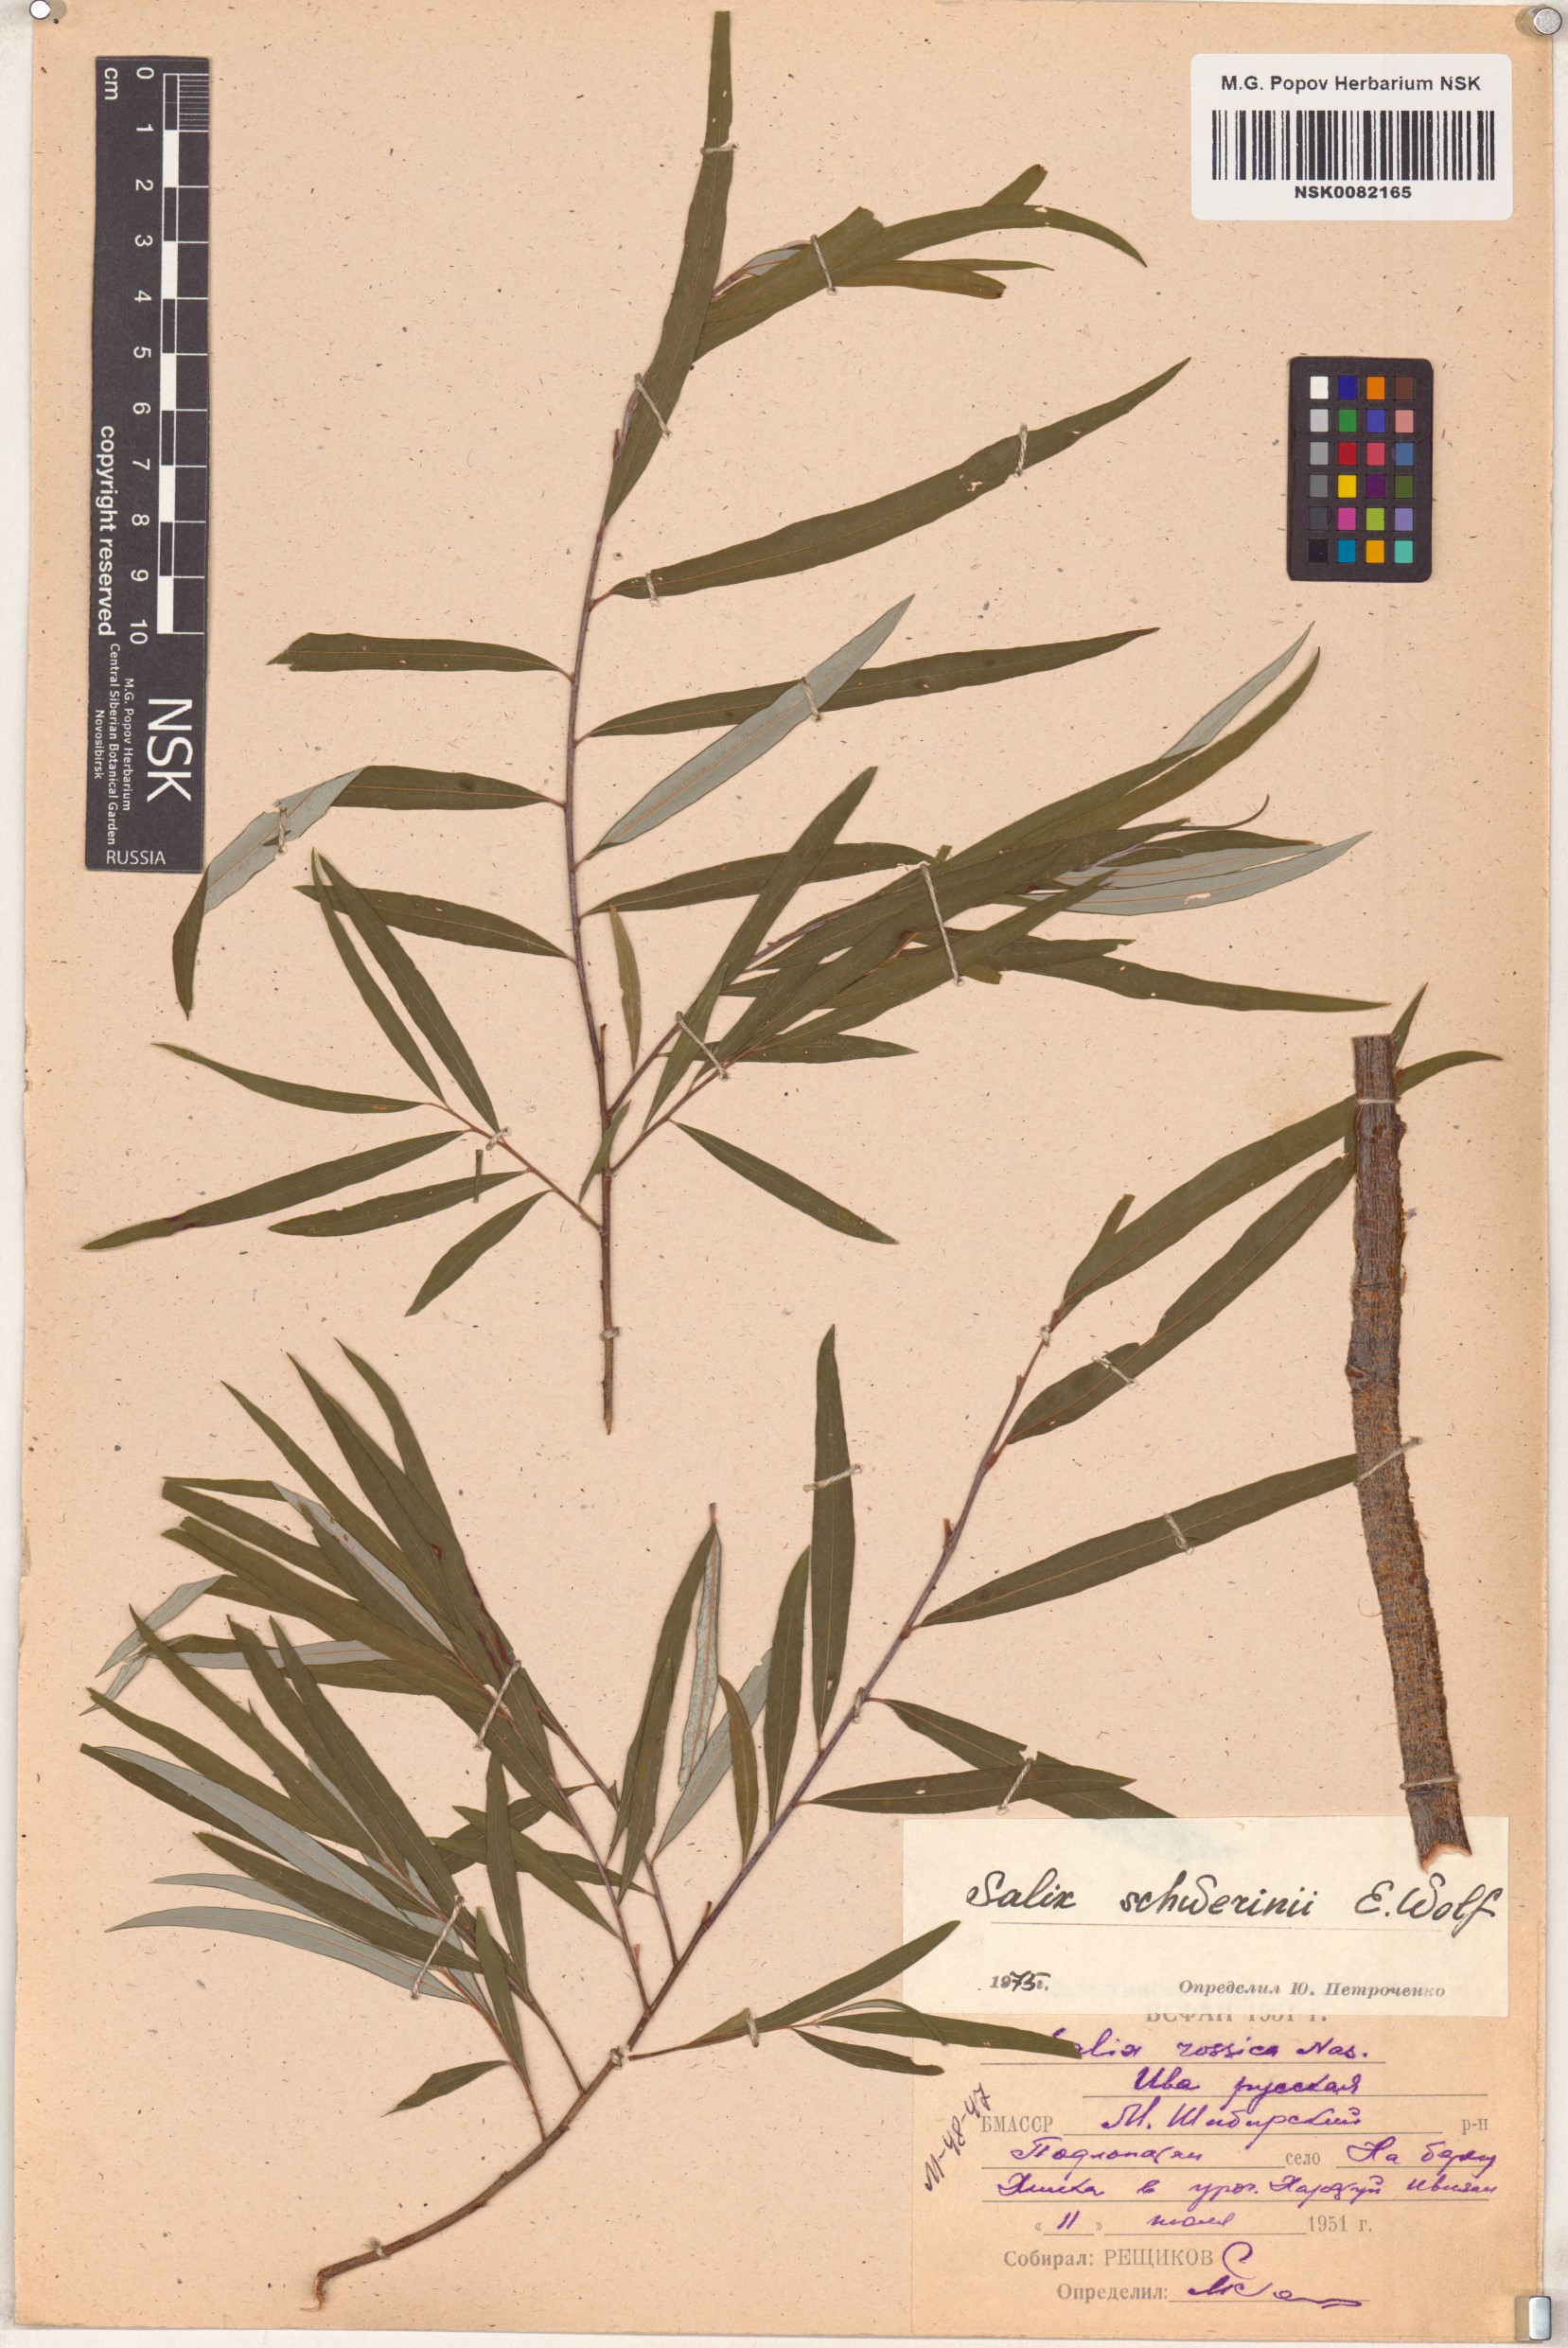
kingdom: Plantae
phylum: Tracheophyta
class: Magnoliopsida
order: Malpighiales
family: Salicaceae
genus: Salix
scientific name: Salix schwerinii
